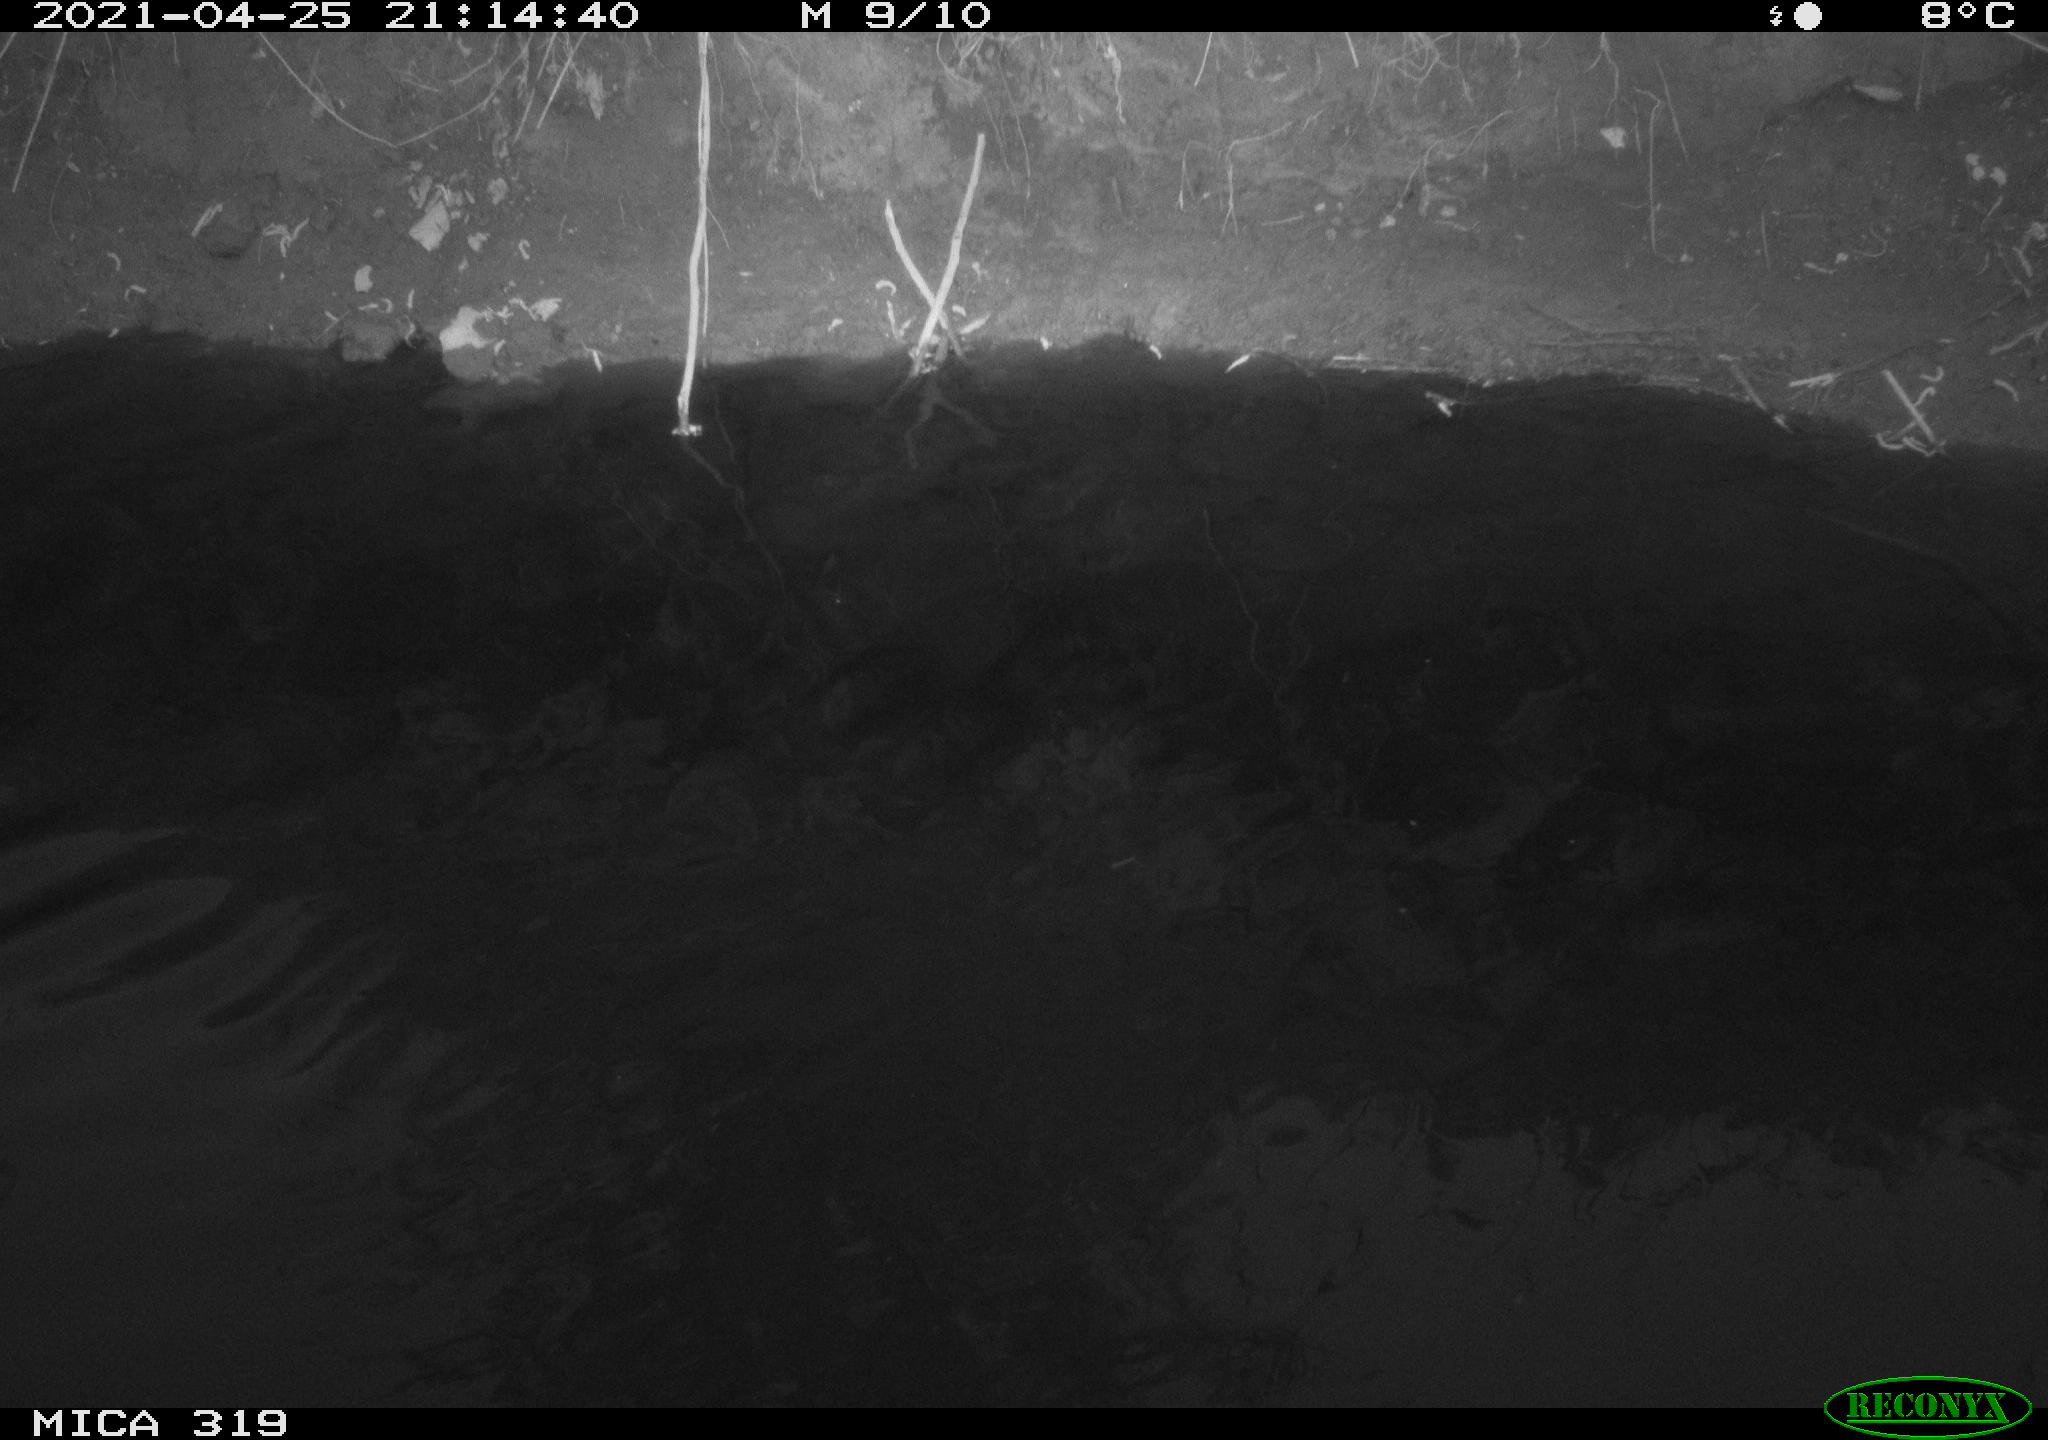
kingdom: Animalia
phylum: Chordata
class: Aves
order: Anseriformes
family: Anatidae
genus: Anas
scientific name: Anas platyrhynchos
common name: Mallard
